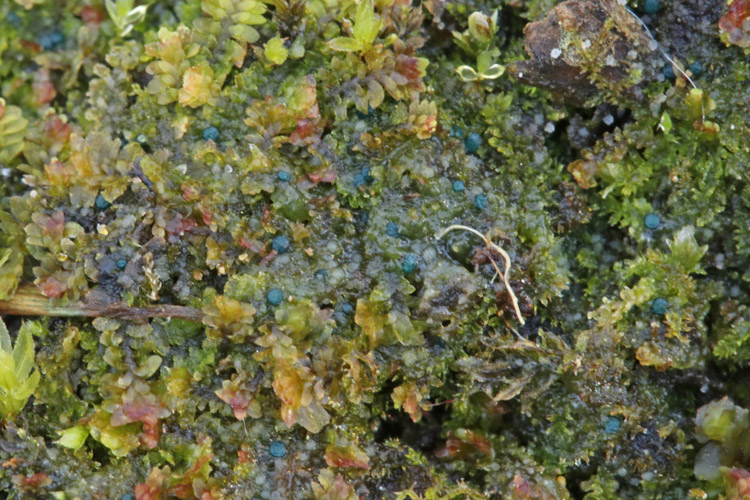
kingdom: Fungi
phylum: Ascomycota
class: Leotiomycetes
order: Leotiales
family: Mniaeciaceae
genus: Mniaecia
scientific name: Mniaecia jungermanniae
